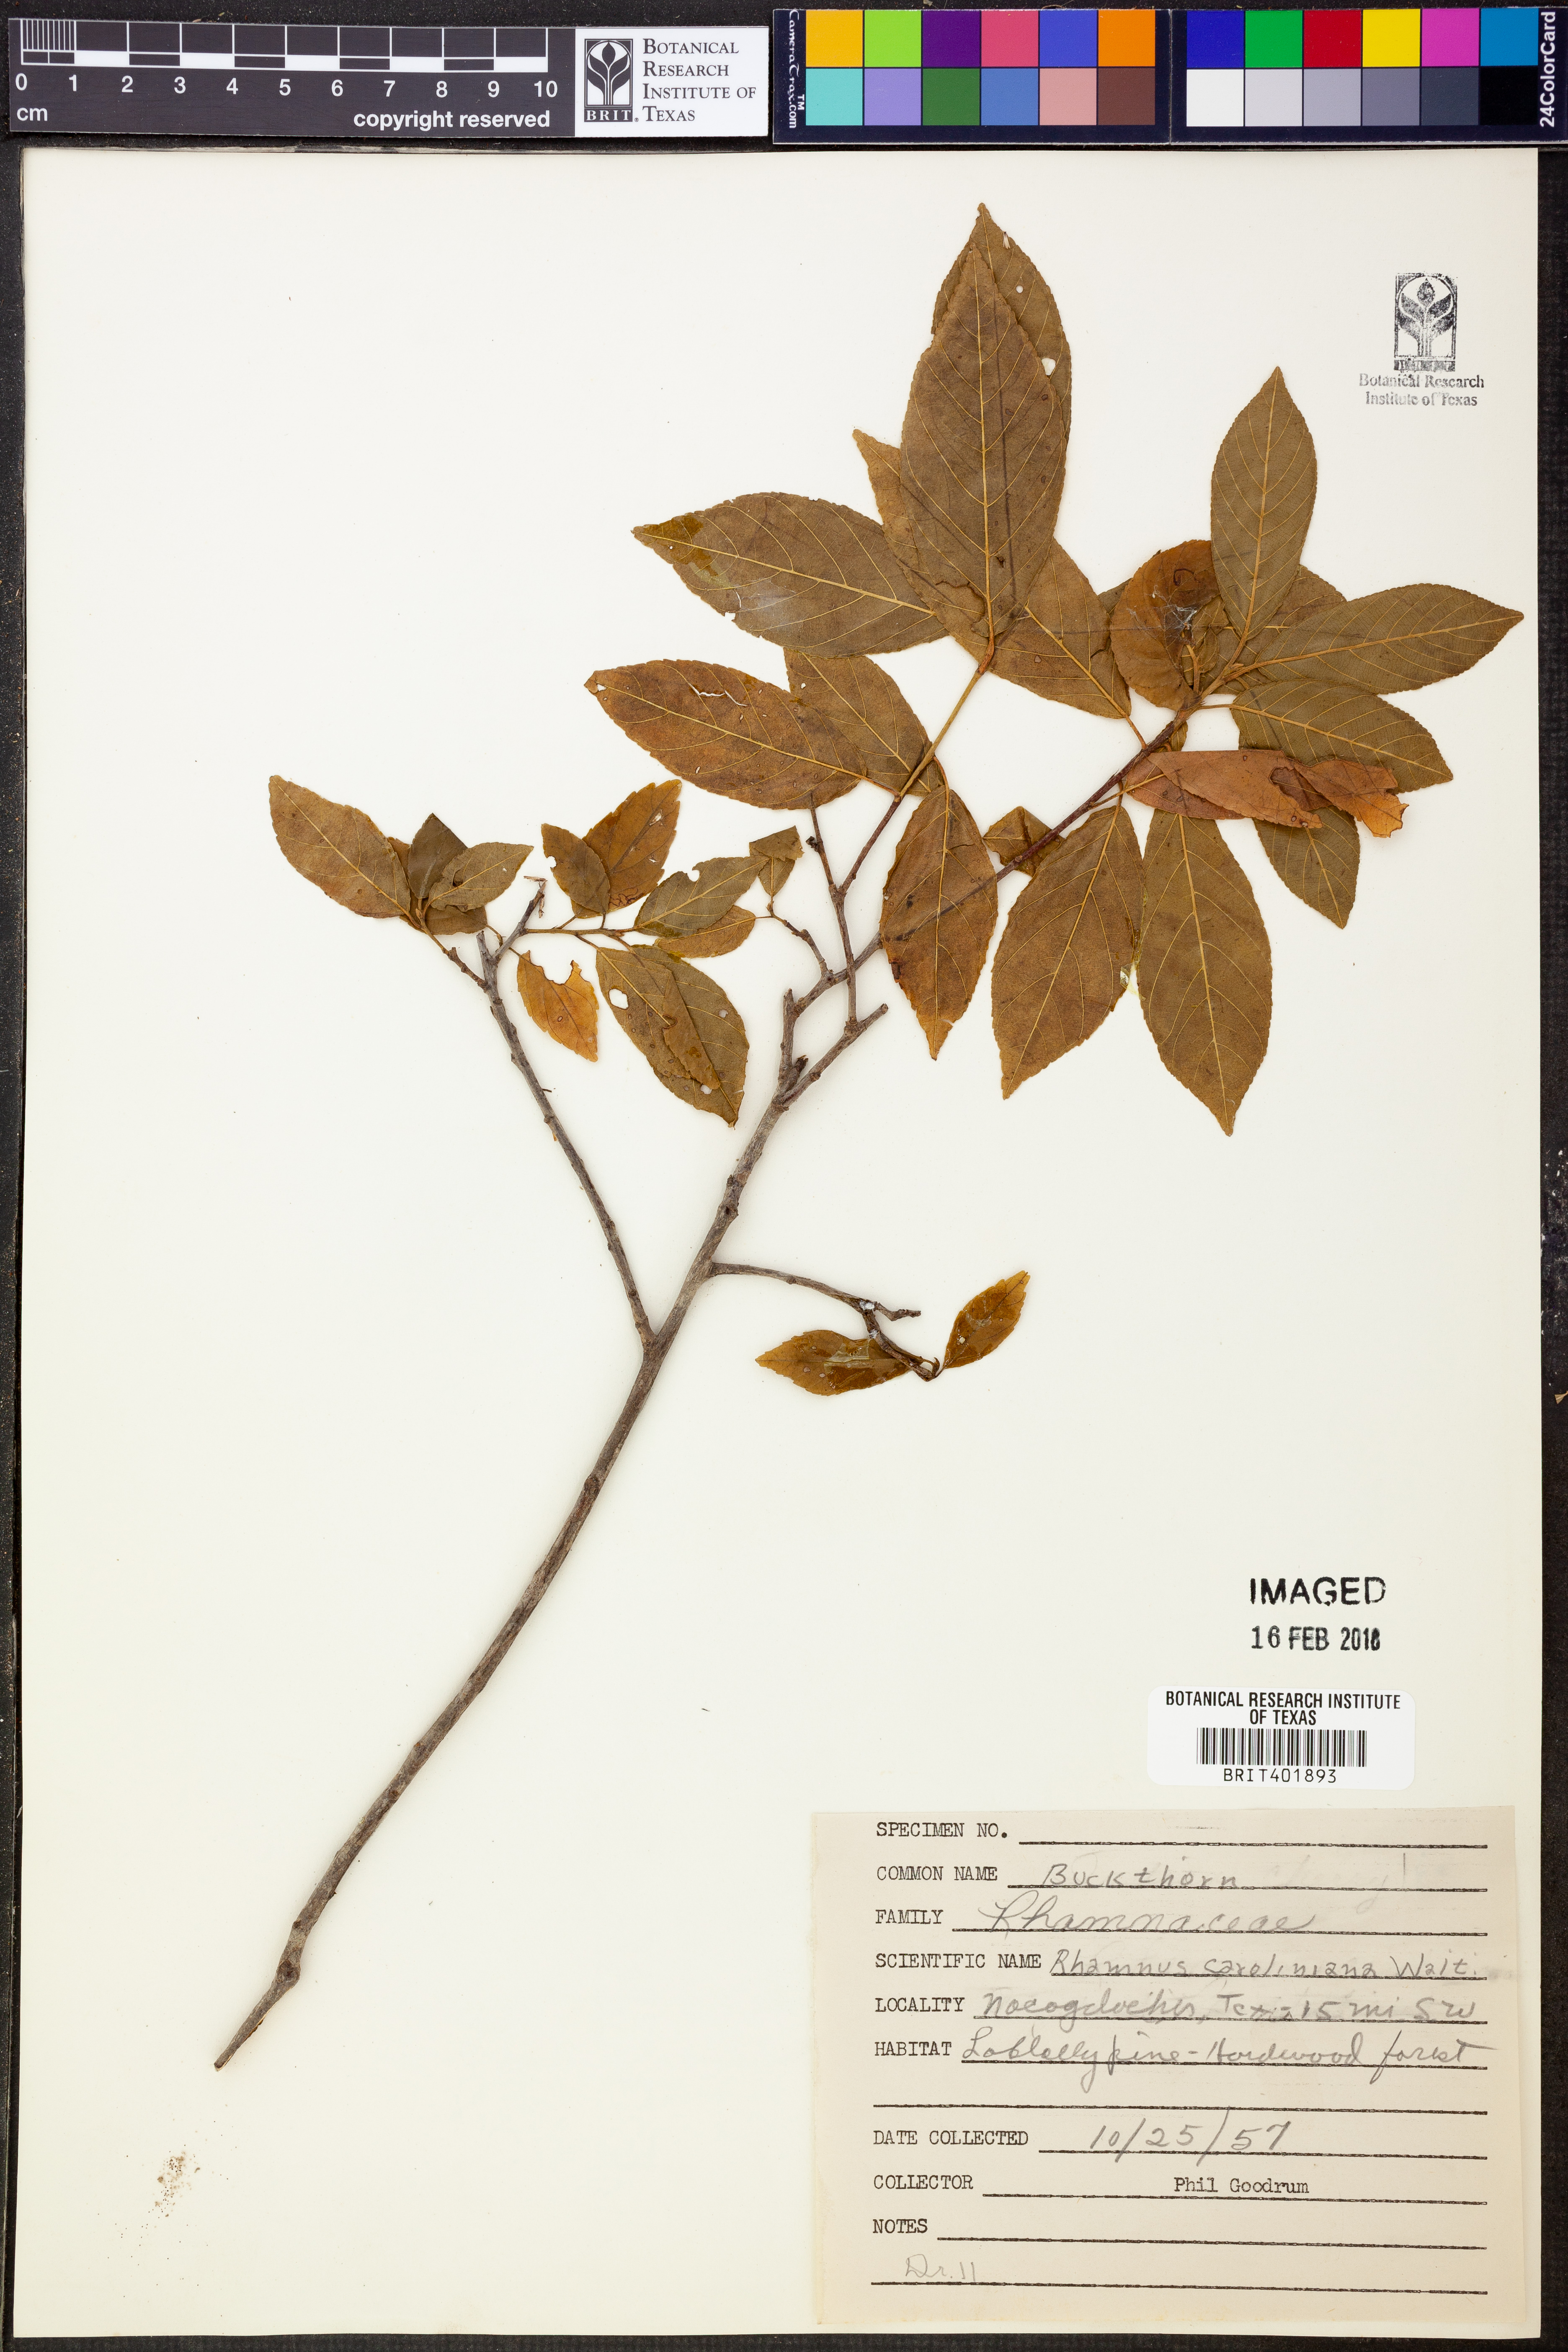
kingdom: Plantae
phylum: Tracheophyta
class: Magnoliopsida
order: Rosales
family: Rhamnaceae
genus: Frangula
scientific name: Frangula caroliniana
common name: Carolina buckthorn
